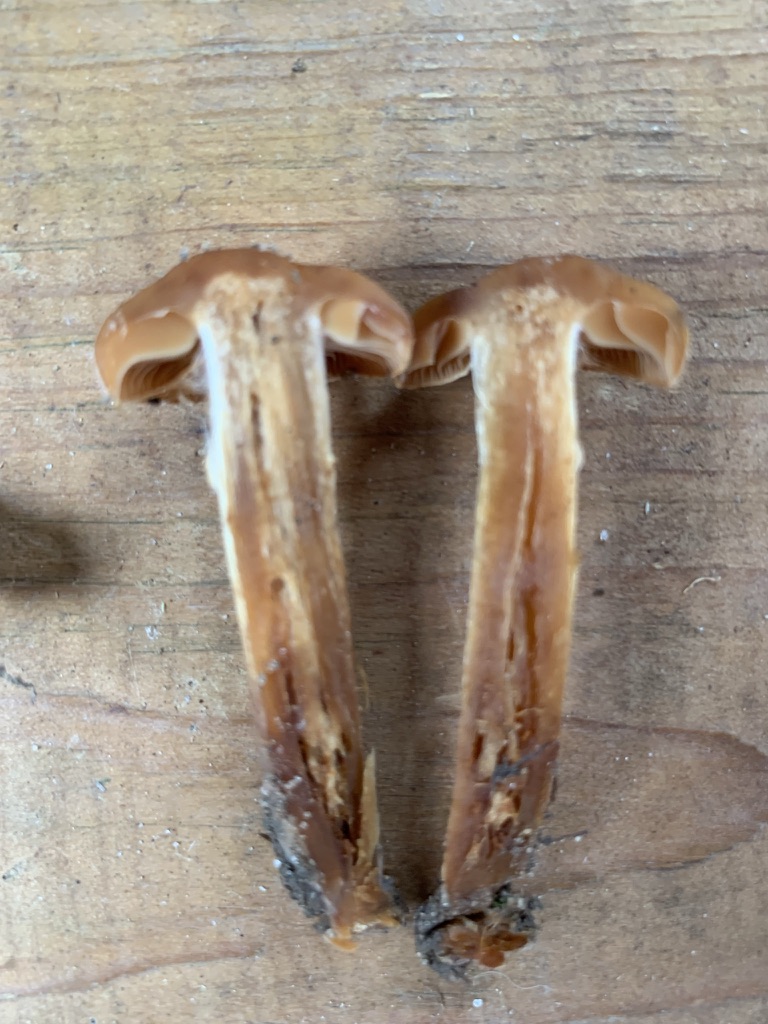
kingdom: Fungi
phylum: Basidiomycota
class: Agaricomycetes
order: Agaricales
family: Cortinariaceae
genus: Cortinarius
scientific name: Cortinarius hinnuleus
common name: ildelugtende slørhat
